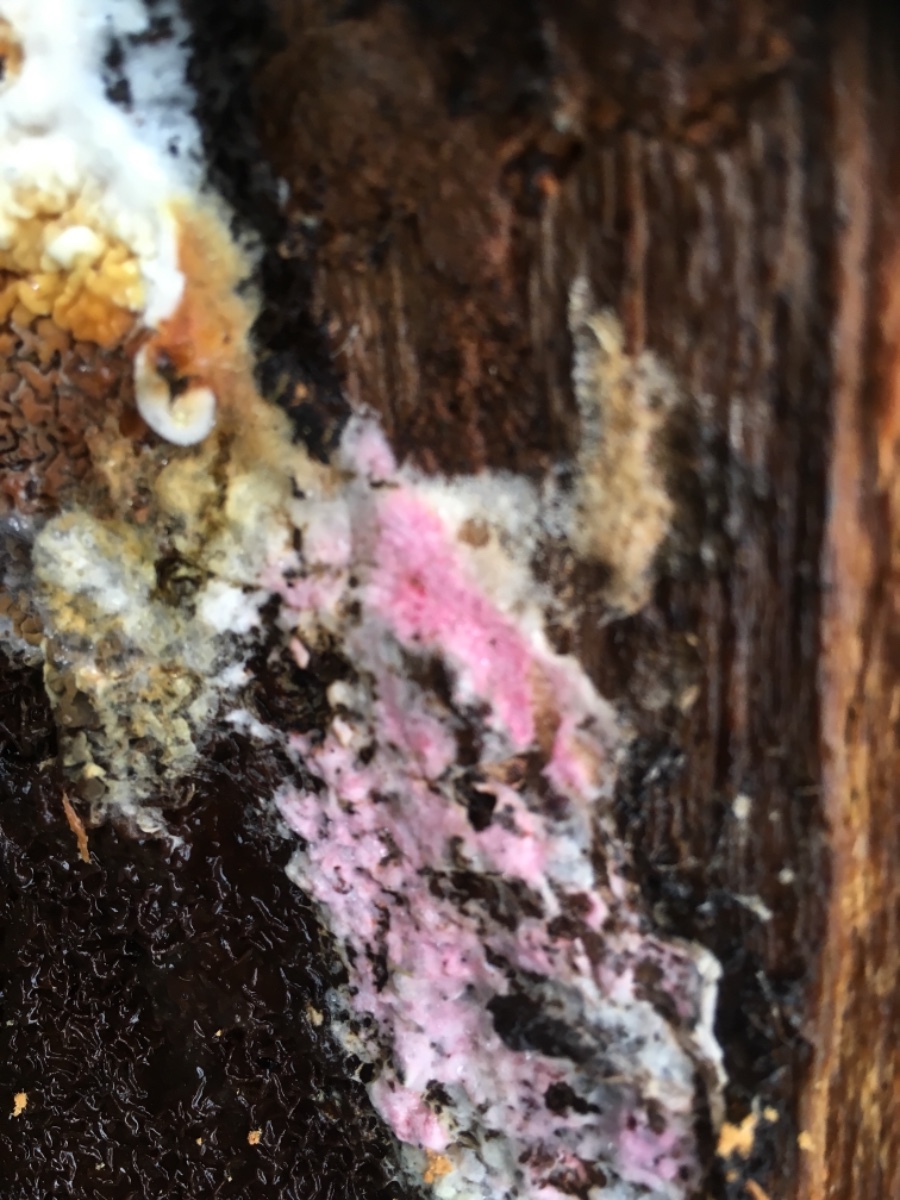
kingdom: Fungi
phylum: Ascomycota
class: Sordariomycetes
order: Hypocreales
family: Hypocreaceae
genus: Hypomyces
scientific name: Hypomyces
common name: snylteskorpe
